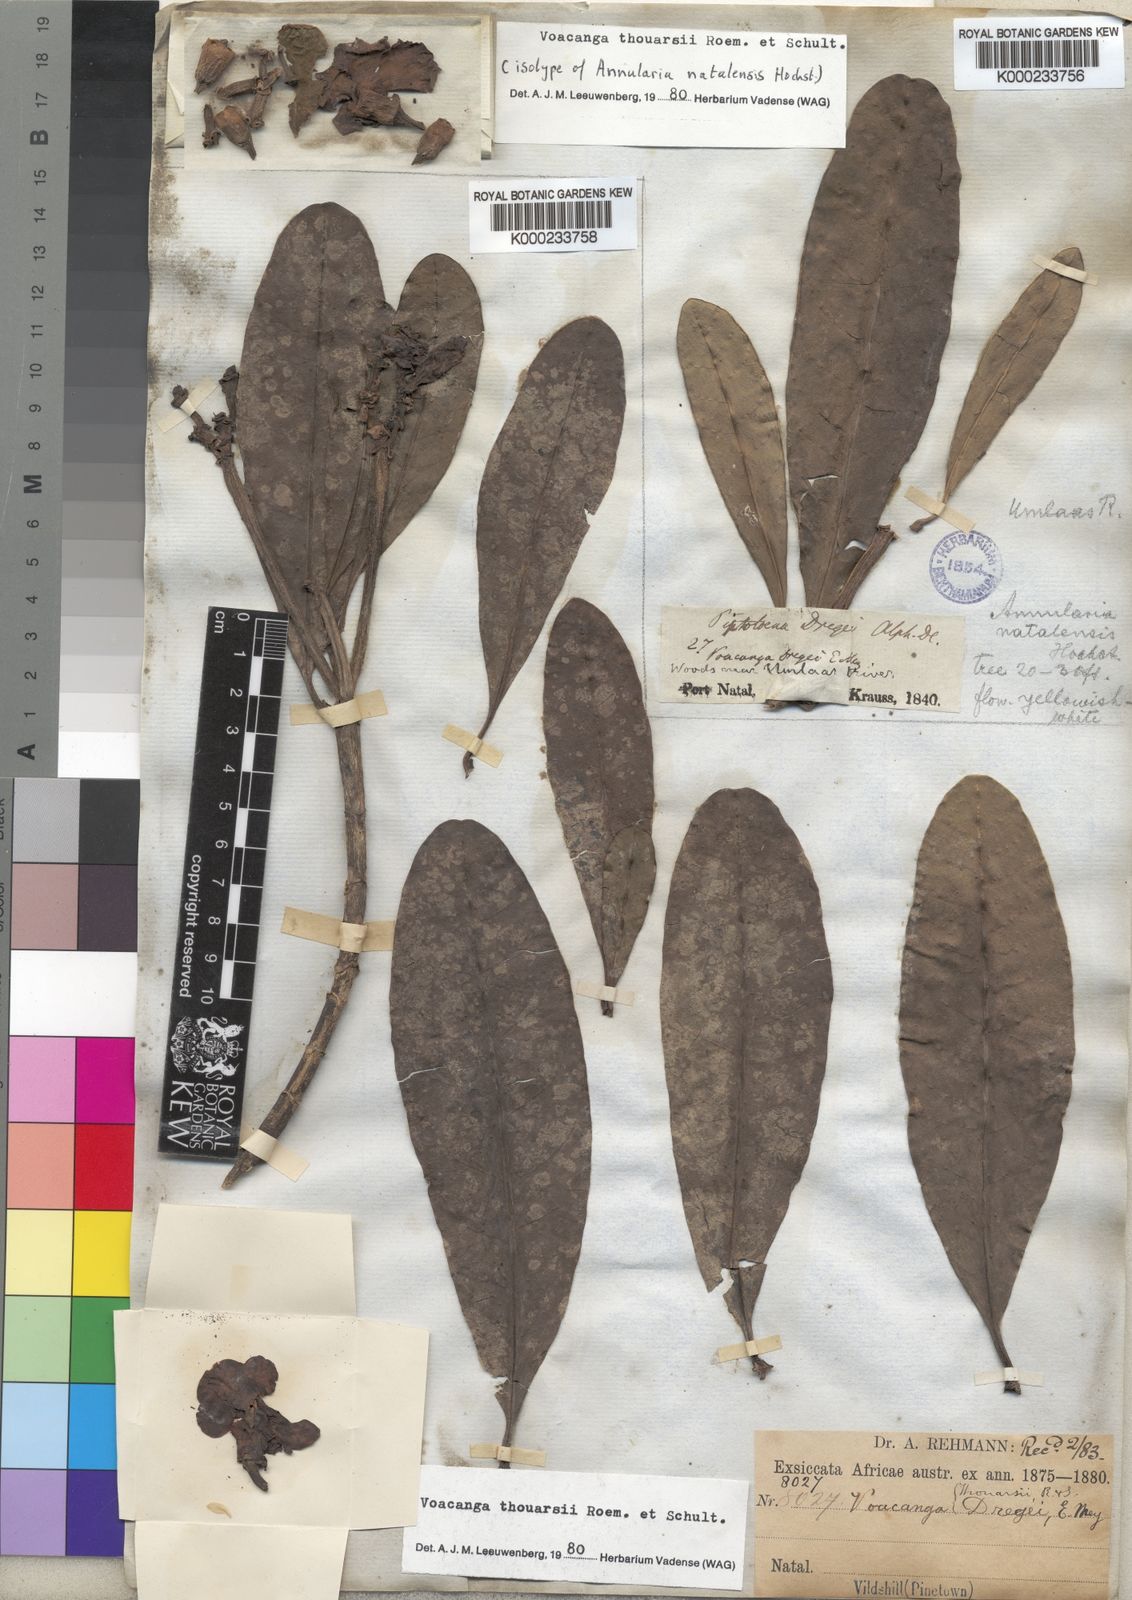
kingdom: Plantae
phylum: Tracheophyta
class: Magnoliopsida
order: Gentianales
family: Apocynaceae
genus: Voacanga
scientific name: Voacanga thouarsii
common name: Wild frangipani
